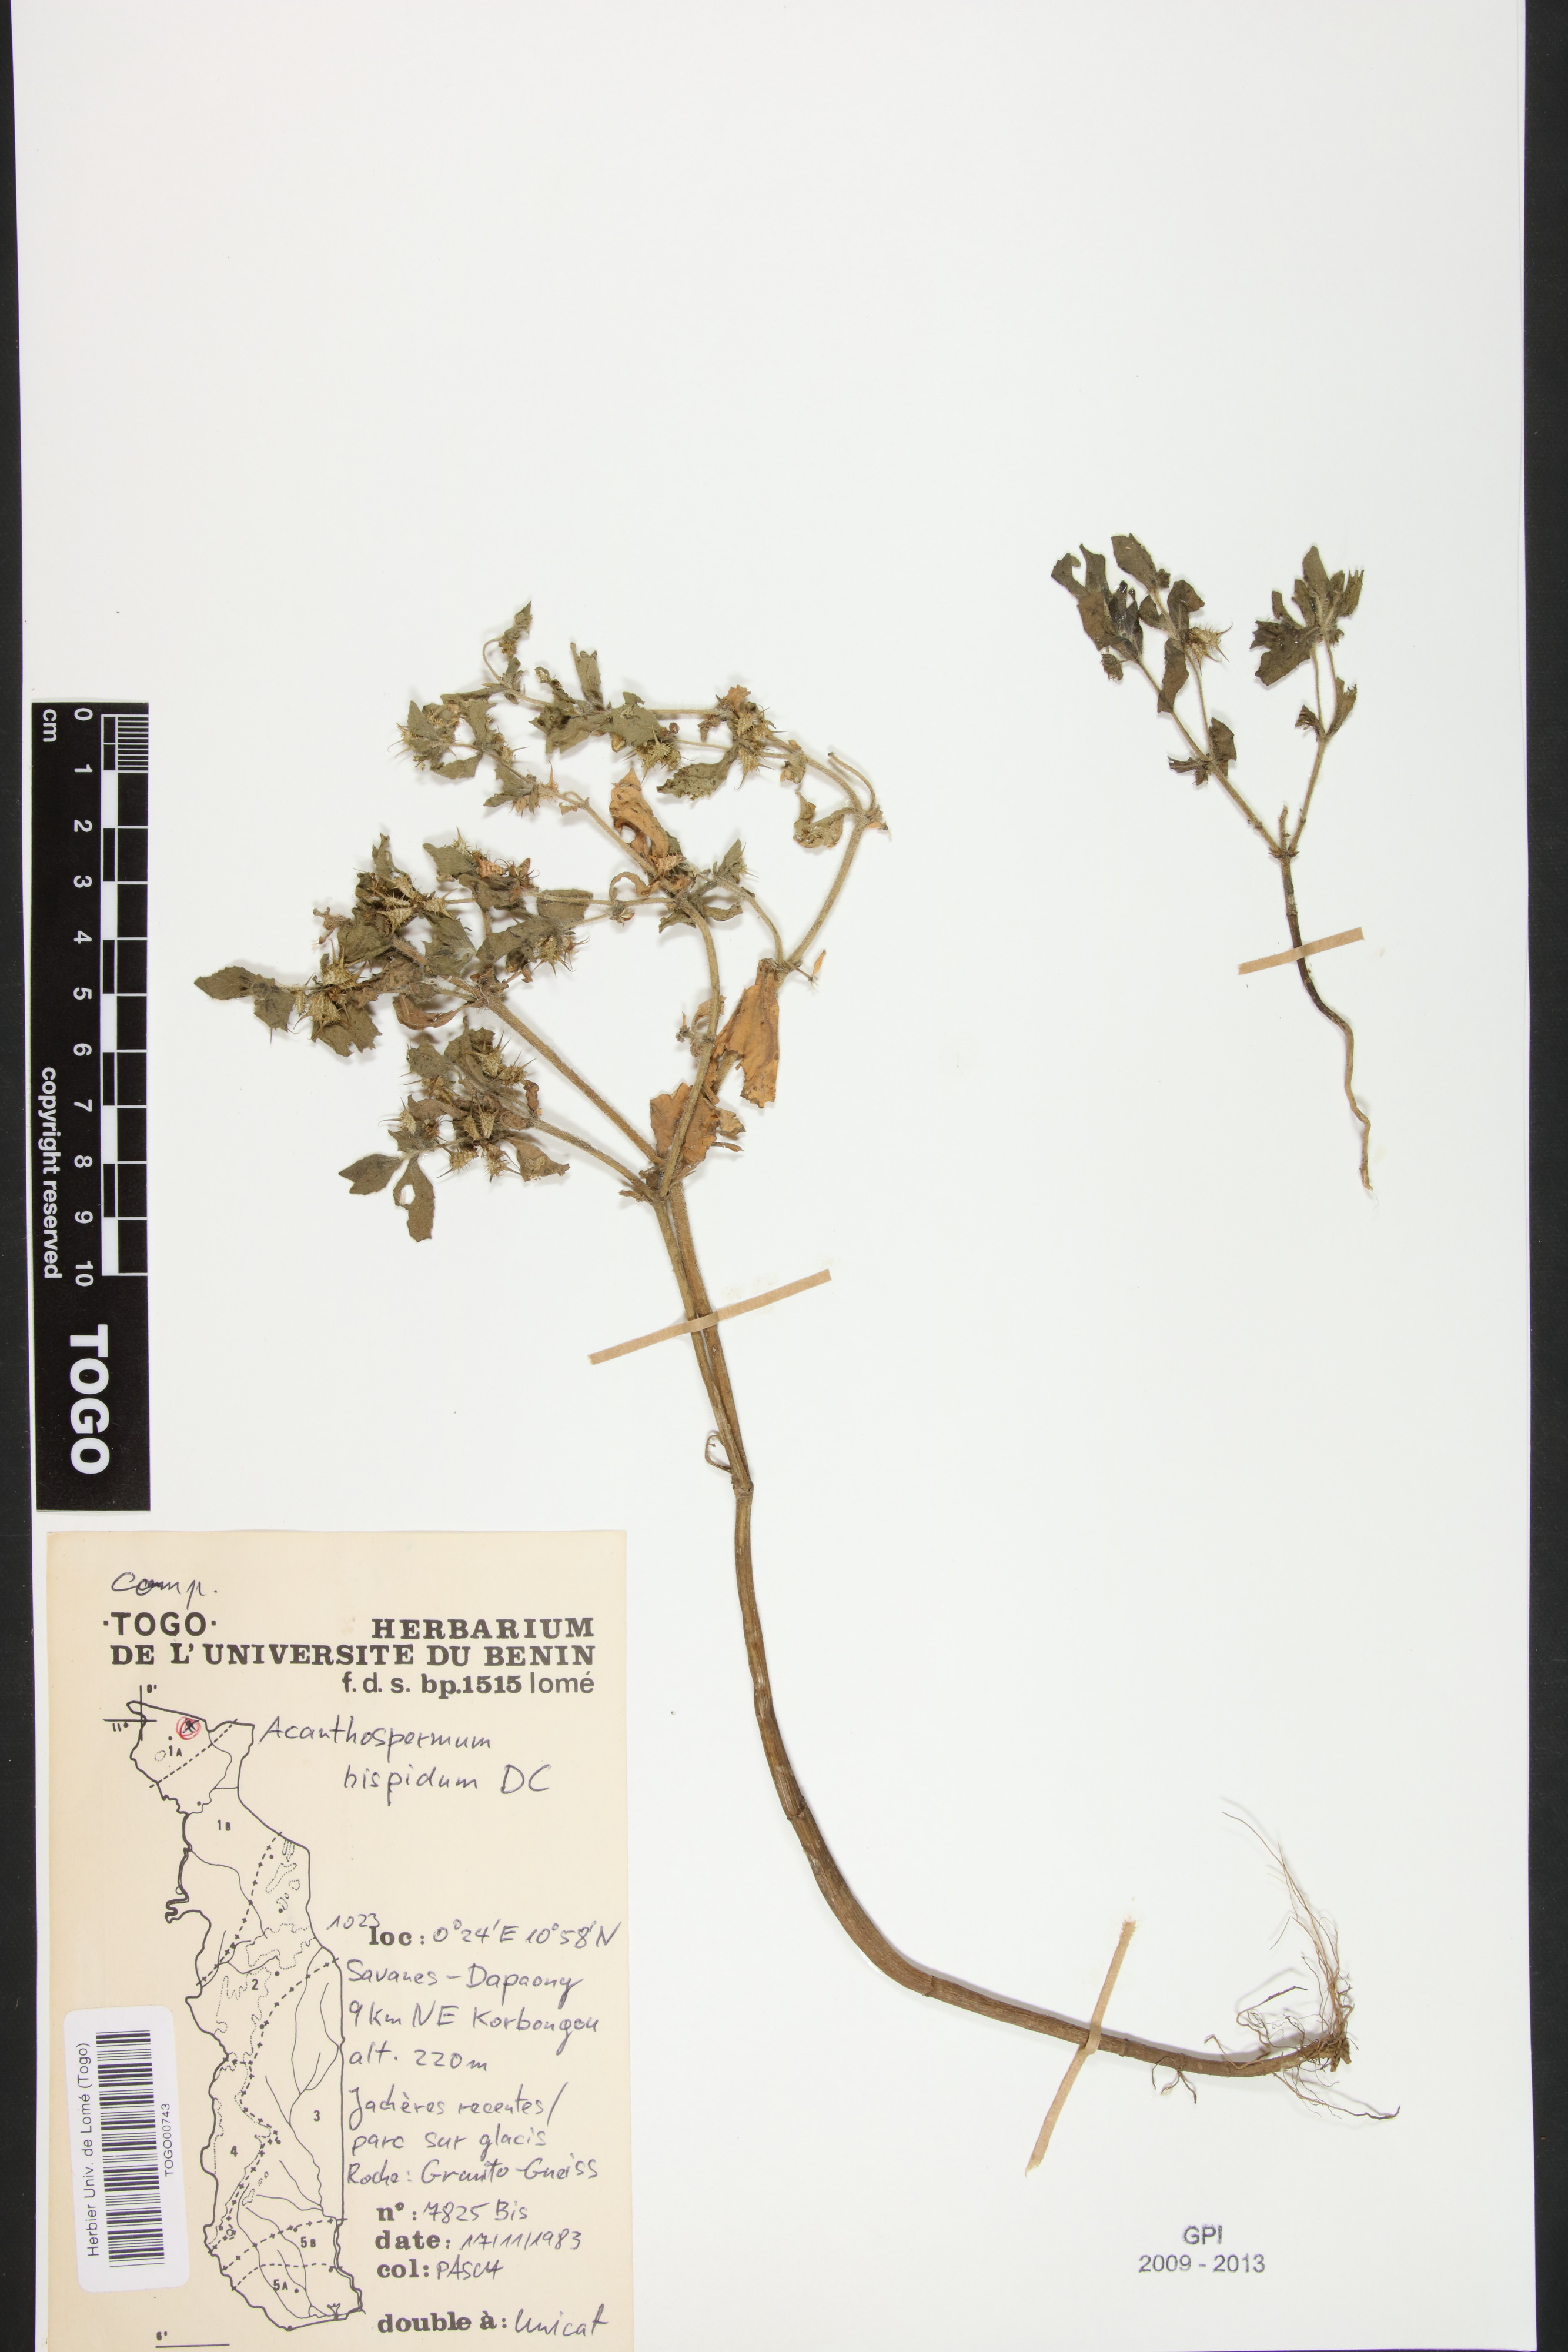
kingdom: Plantae
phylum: Tracheophyta
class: Magnoliopsida
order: Asterales
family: Asteraceae
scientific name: Asteraceae
